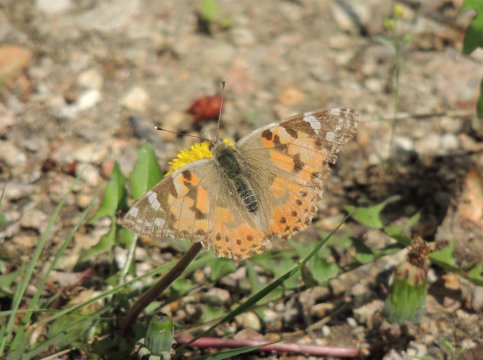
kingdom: Animalia
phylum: Arthropoda
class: Insecta
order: Lepidoptera
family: Nymphalidae
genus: Vanessa
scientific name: Vanessa cardui
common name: Painted Lady
